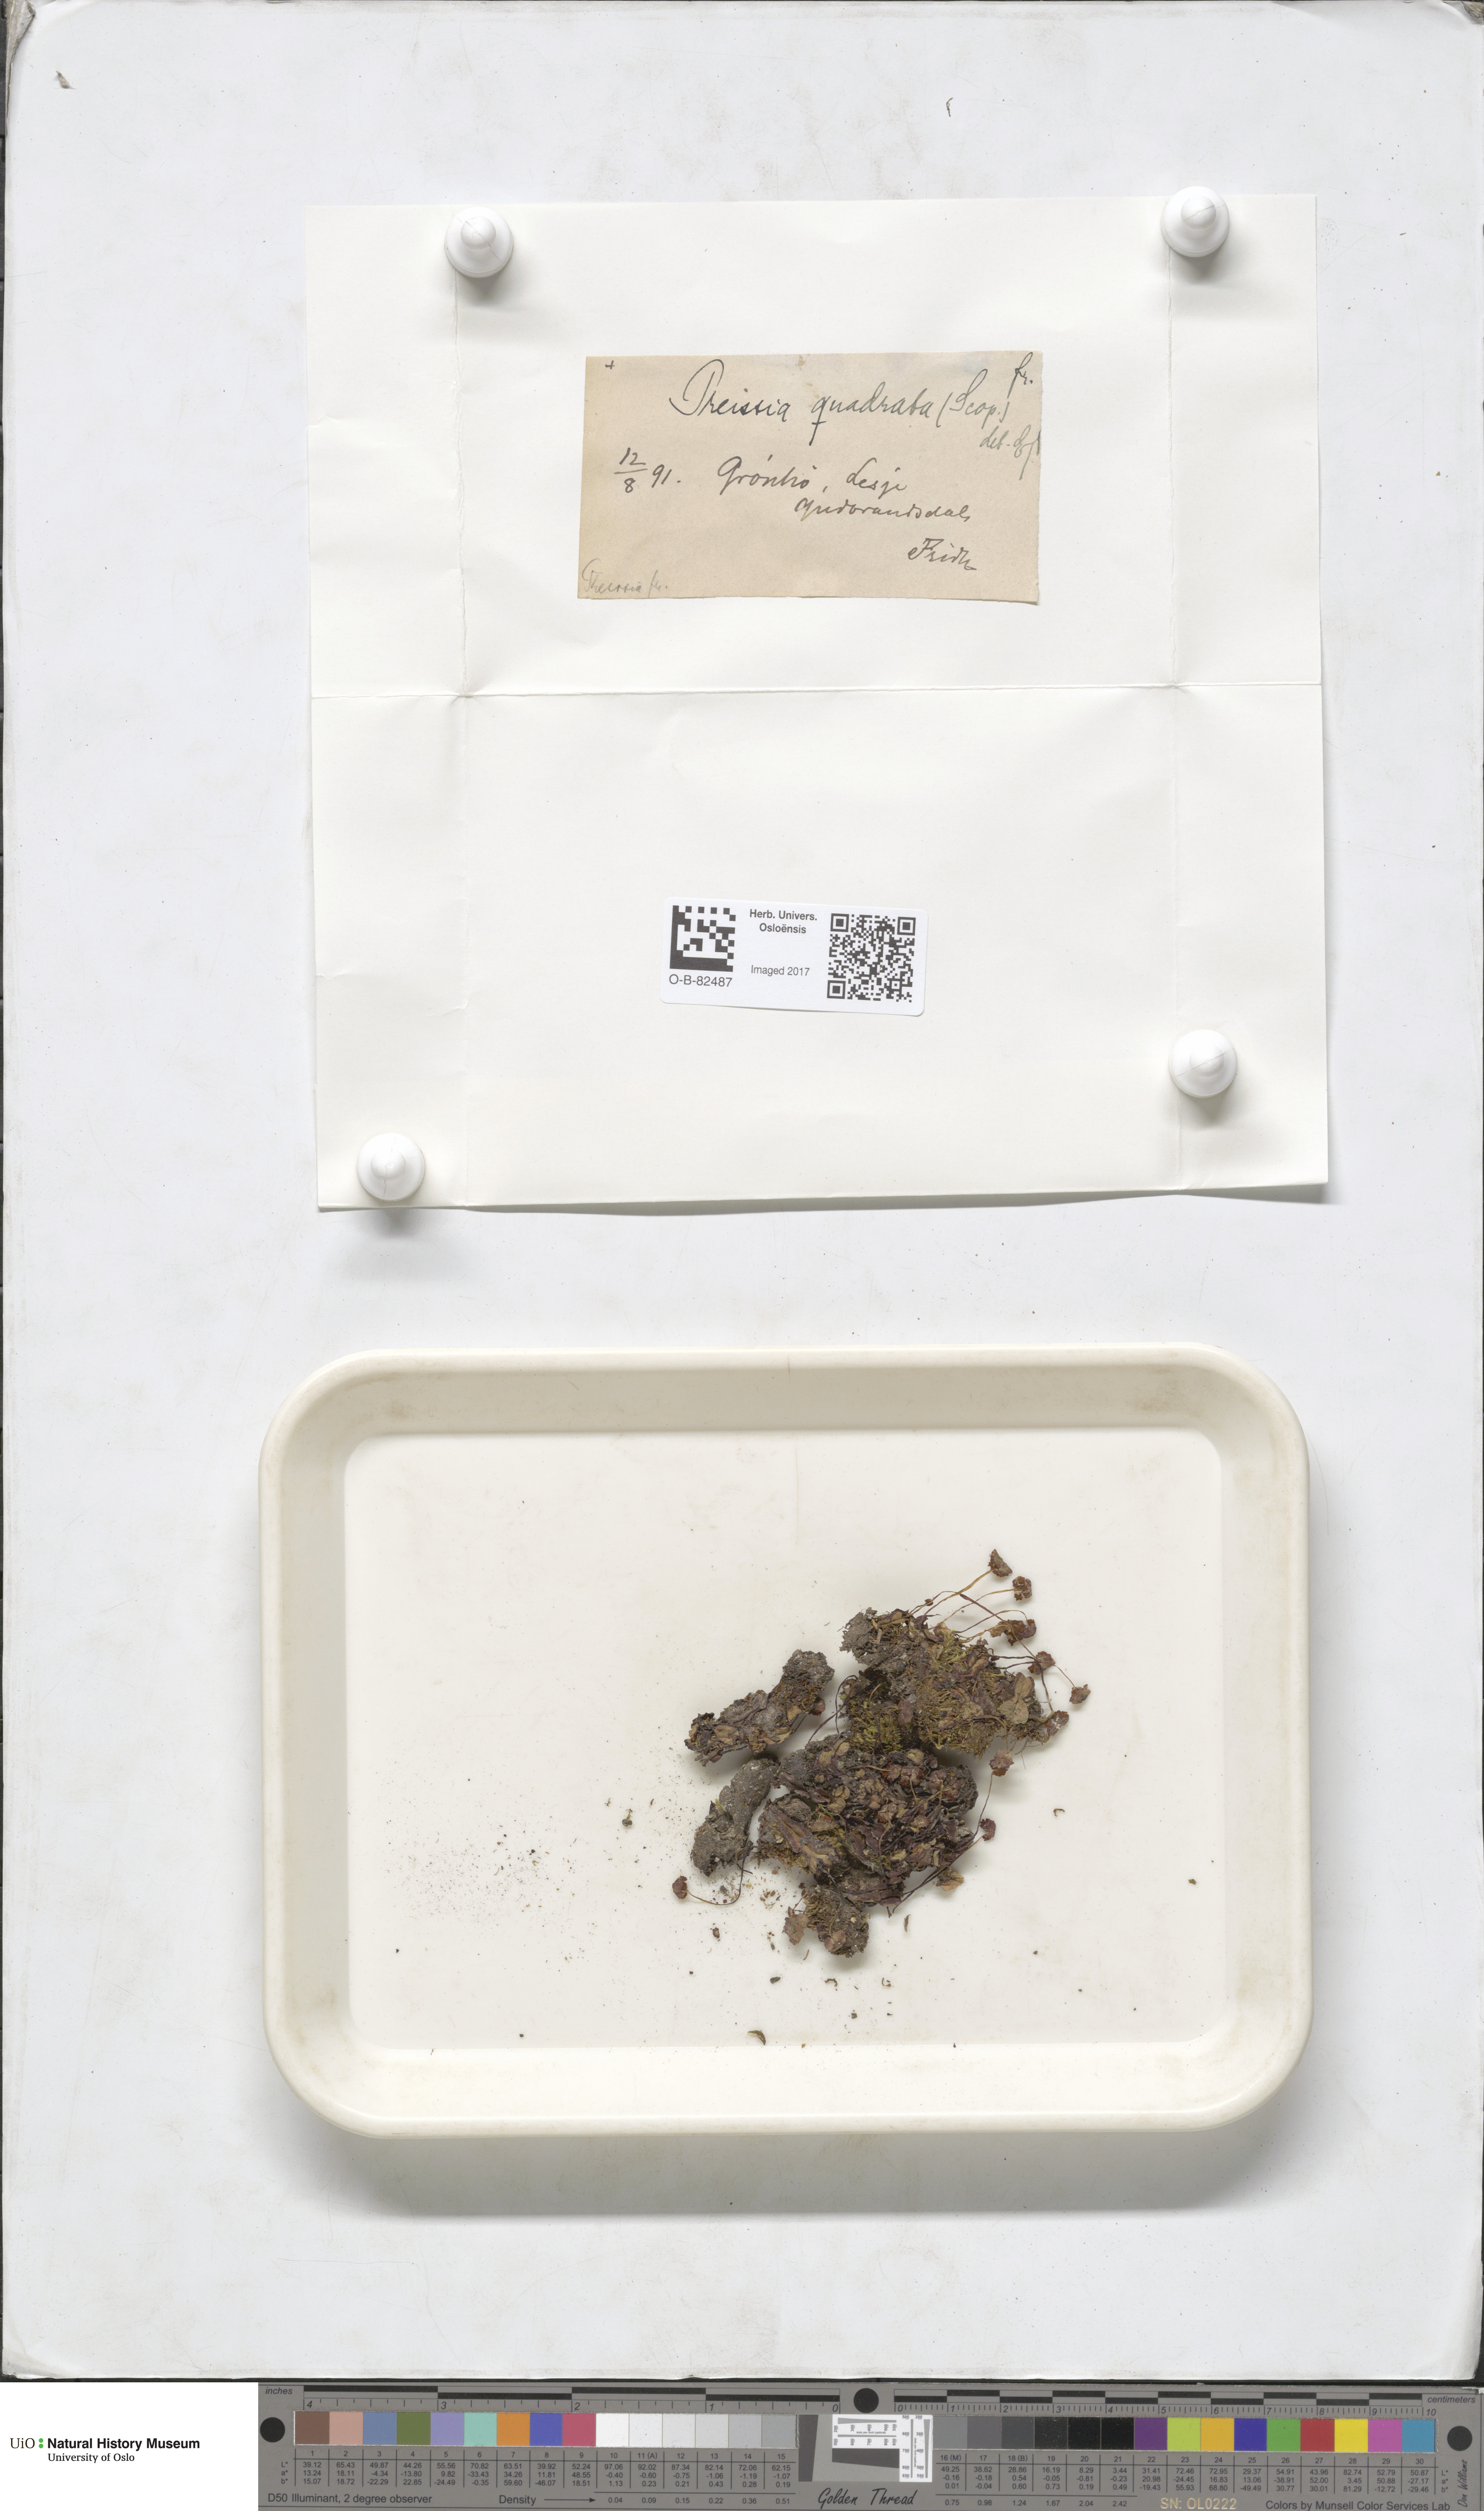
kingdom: Plantae
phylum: Marchantiophyta
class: Marchantiopsida
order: Marchantiales
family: Marchantiaceae
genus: Marchantia
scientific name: Marchantia quadrata
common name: Narrow mushroom-headed liverwort
